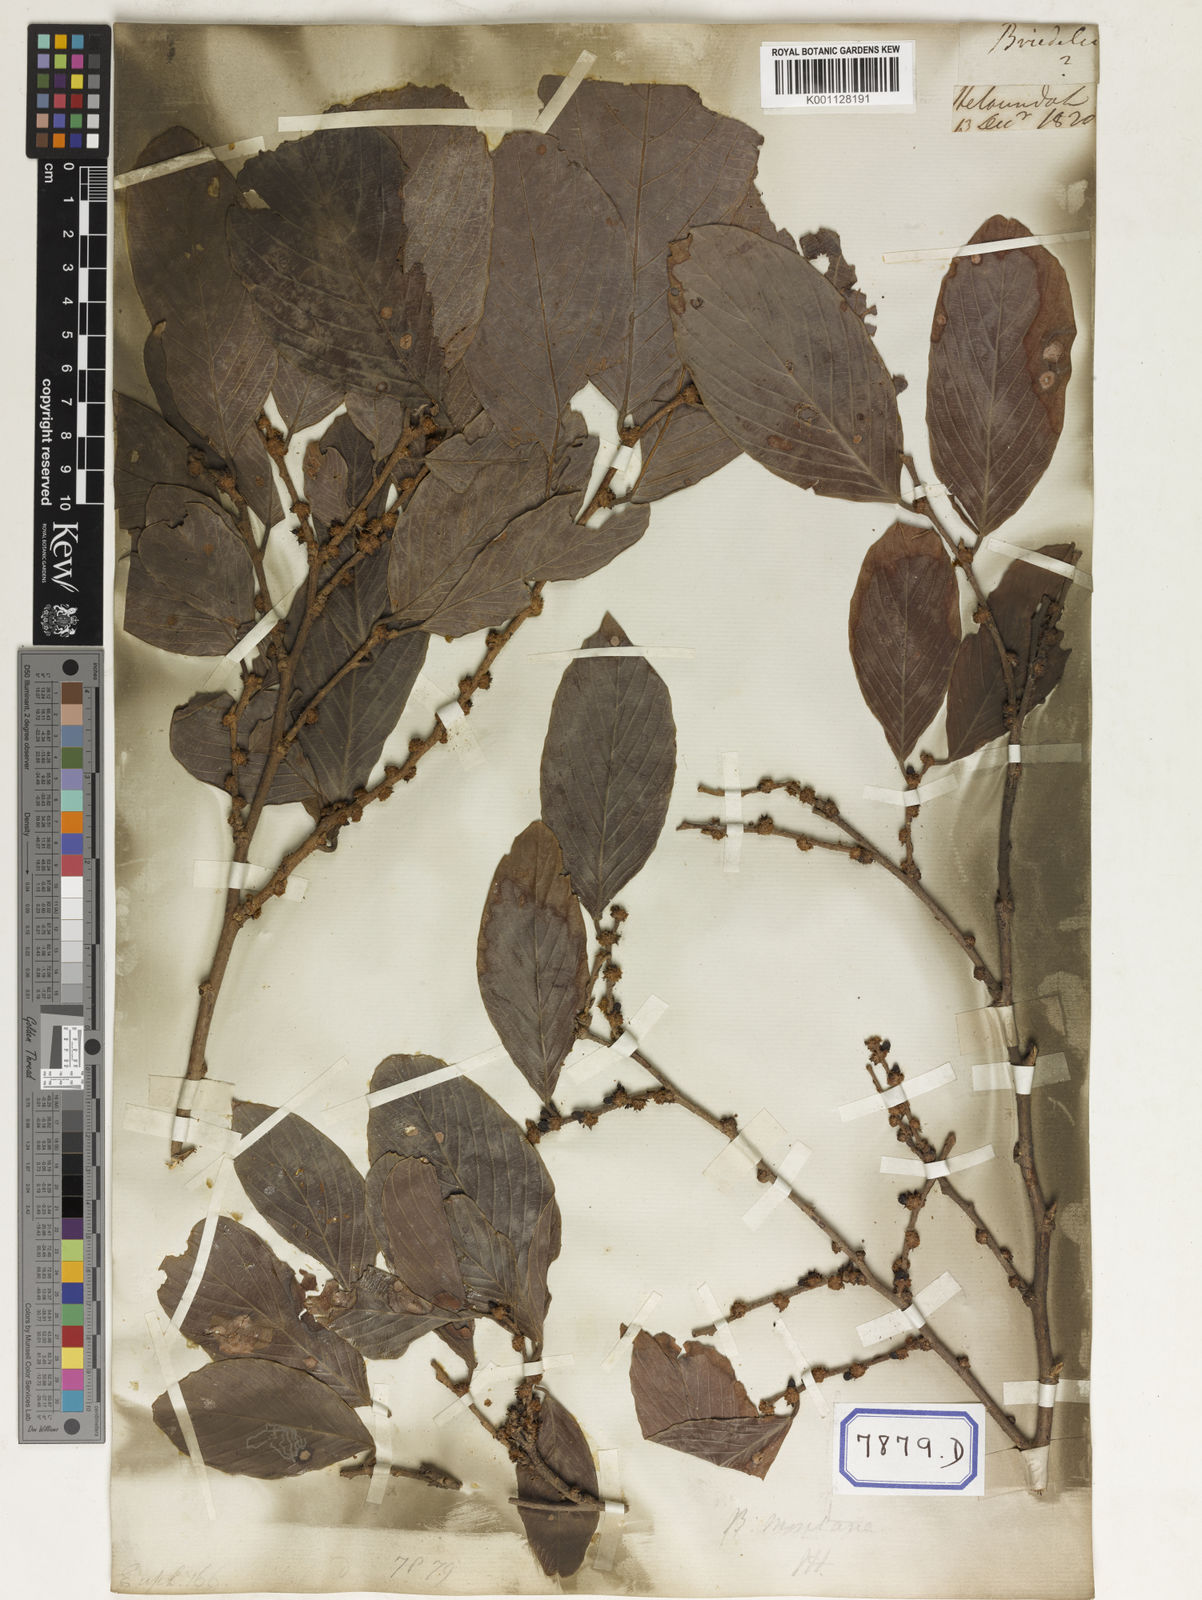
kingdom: Plantae
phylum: Tracheophyta
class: Magnoliopsida
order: Malpighiales
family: Phyllanthaceae
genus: Bridelia
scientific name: Bridelia montana
